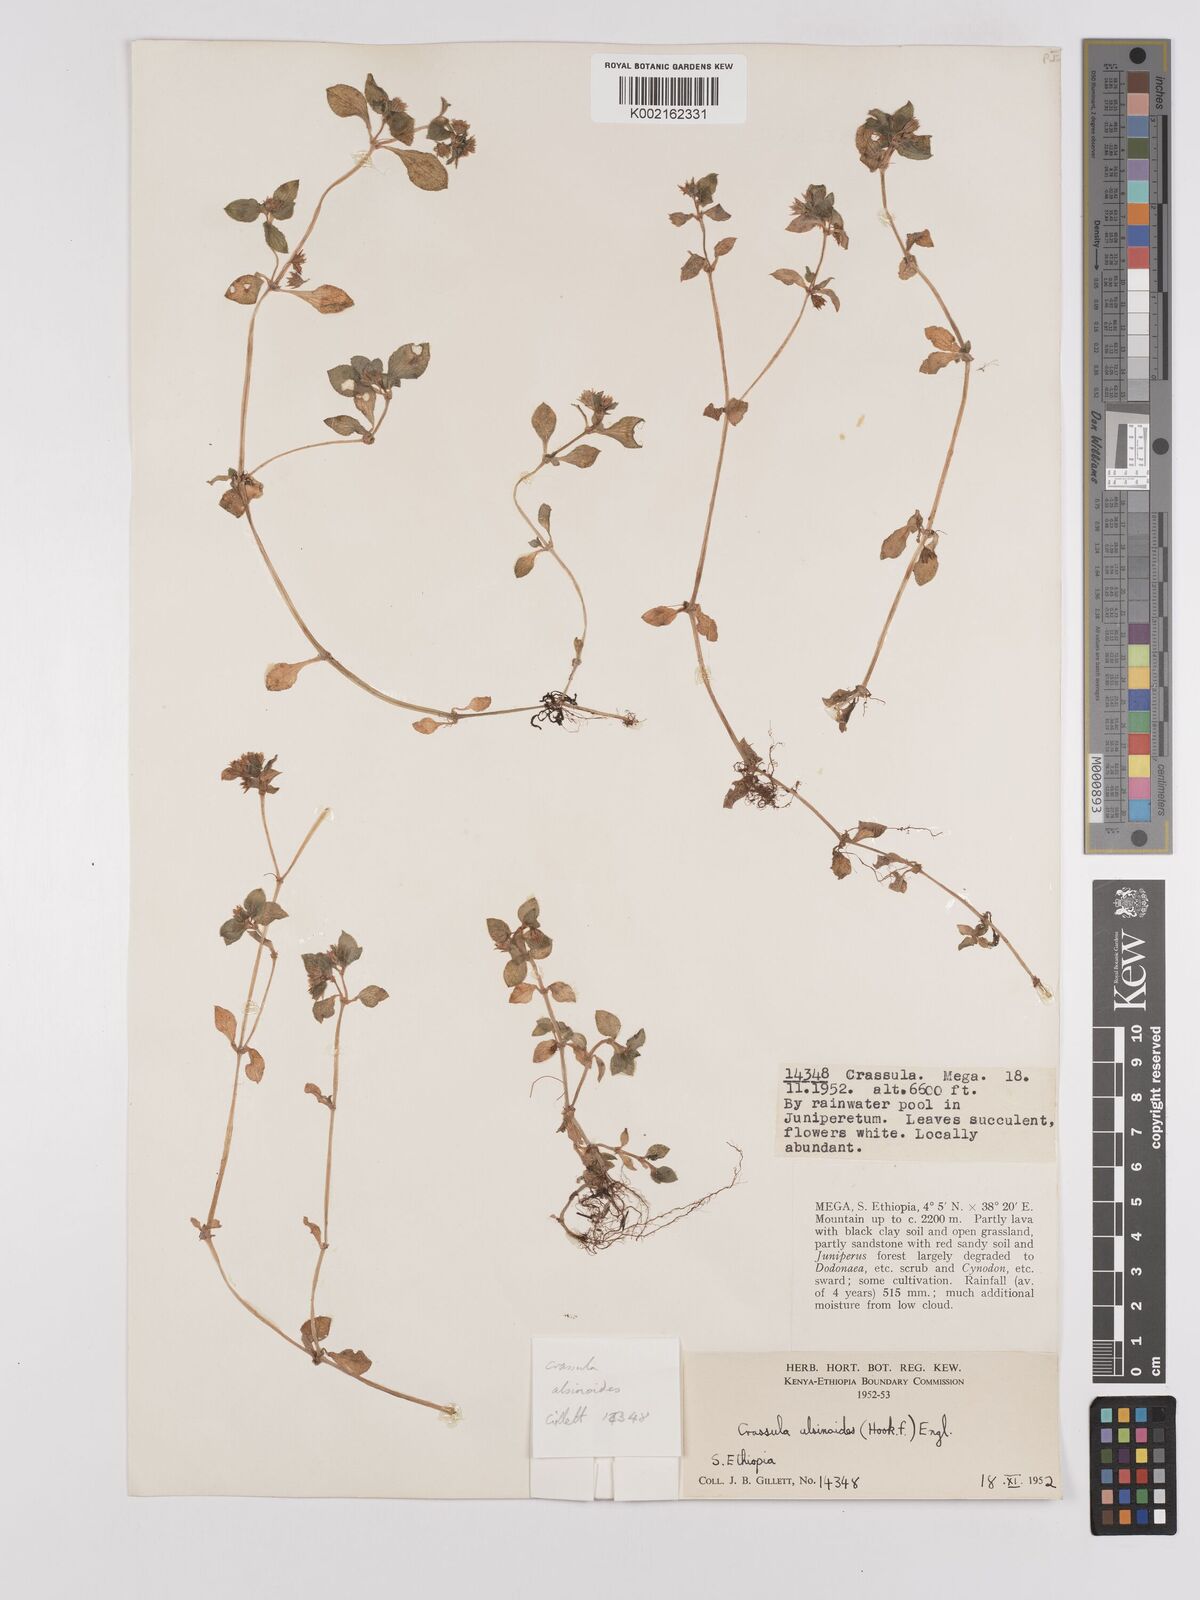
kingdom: Plantae
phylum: Tracheophyta
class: Magnoliopsida
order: Saxifragales
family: Crassulaceae
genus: Crassula
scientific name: Crassula alsinoides
